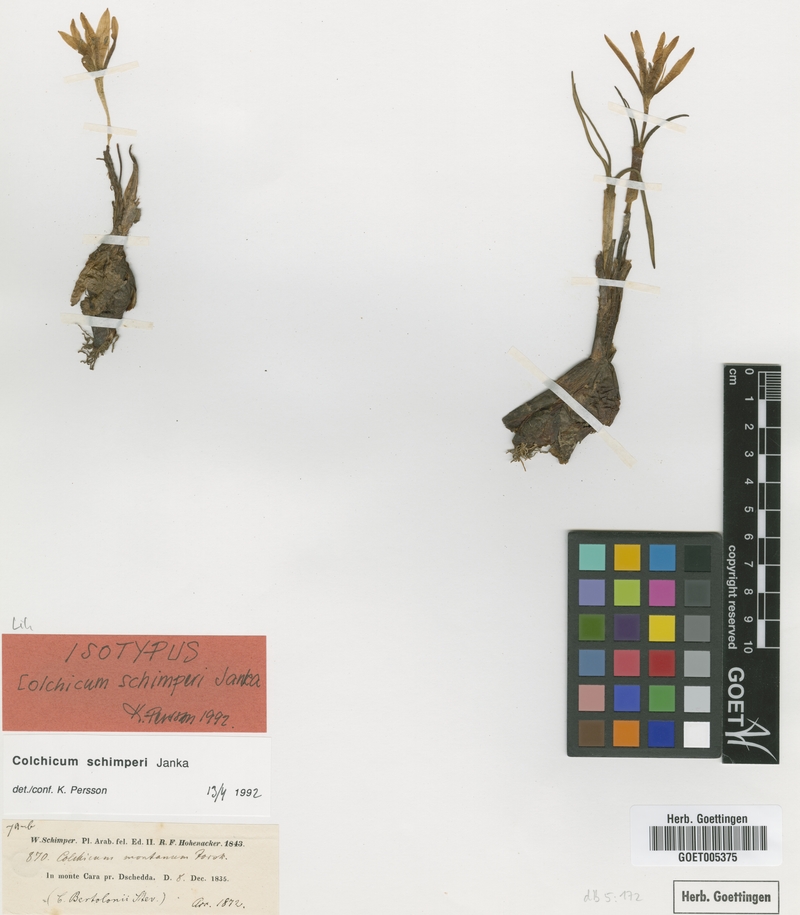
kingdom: Plantae
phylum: Tracheophyta
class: Liliopsida
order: Liliales
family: Colchicaceae
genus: Colchicum
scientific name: Colchicum schimperi
